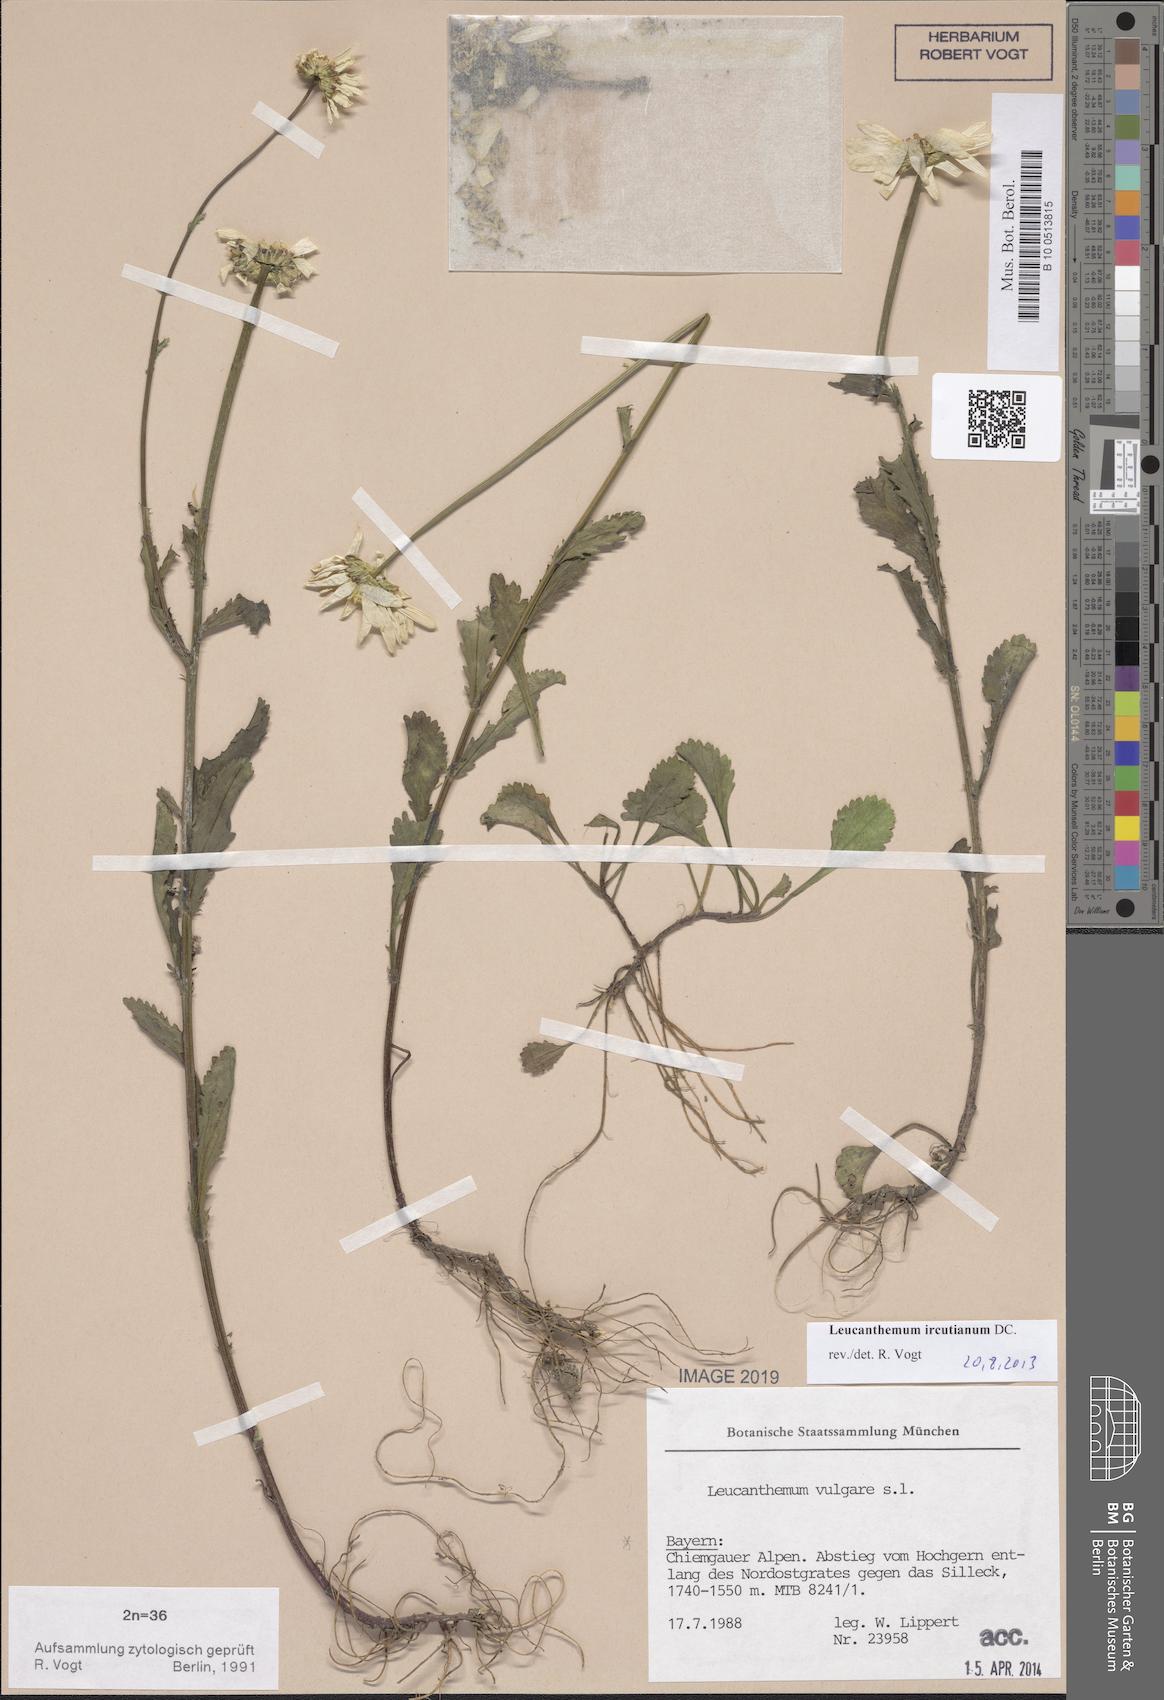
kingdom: Plantae
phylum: Tracheophyta
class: Magnoliopsida
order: Asterales
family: Asteraceae
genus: Leucanthemum
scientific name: Leucanthemum ircutianum
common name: Daisy
